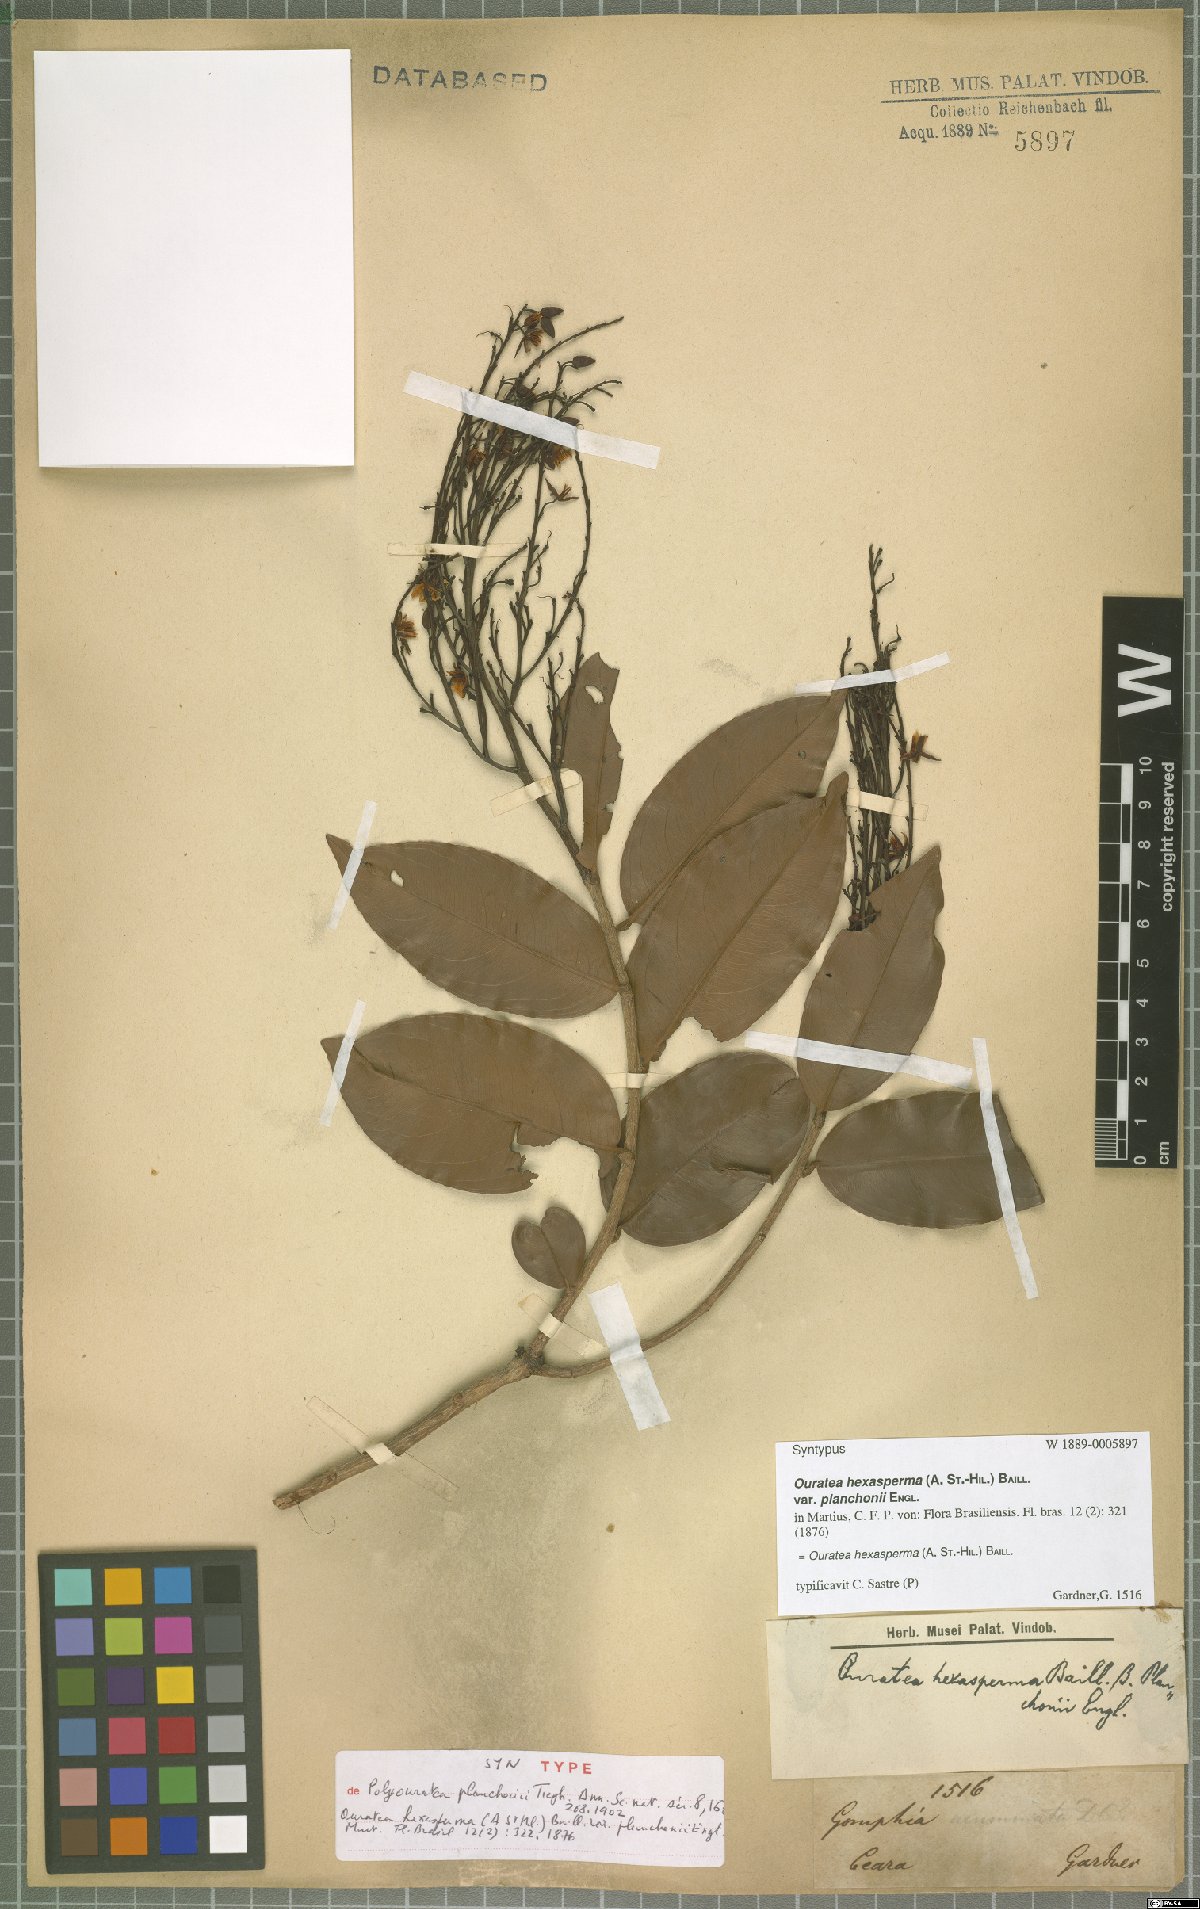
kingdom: Plantae
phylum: Tracheophyta
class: Magnoliopsida
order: Malpighiales
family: Ochnaceae
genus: Ouratea
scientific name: Ouratea hexasperma
